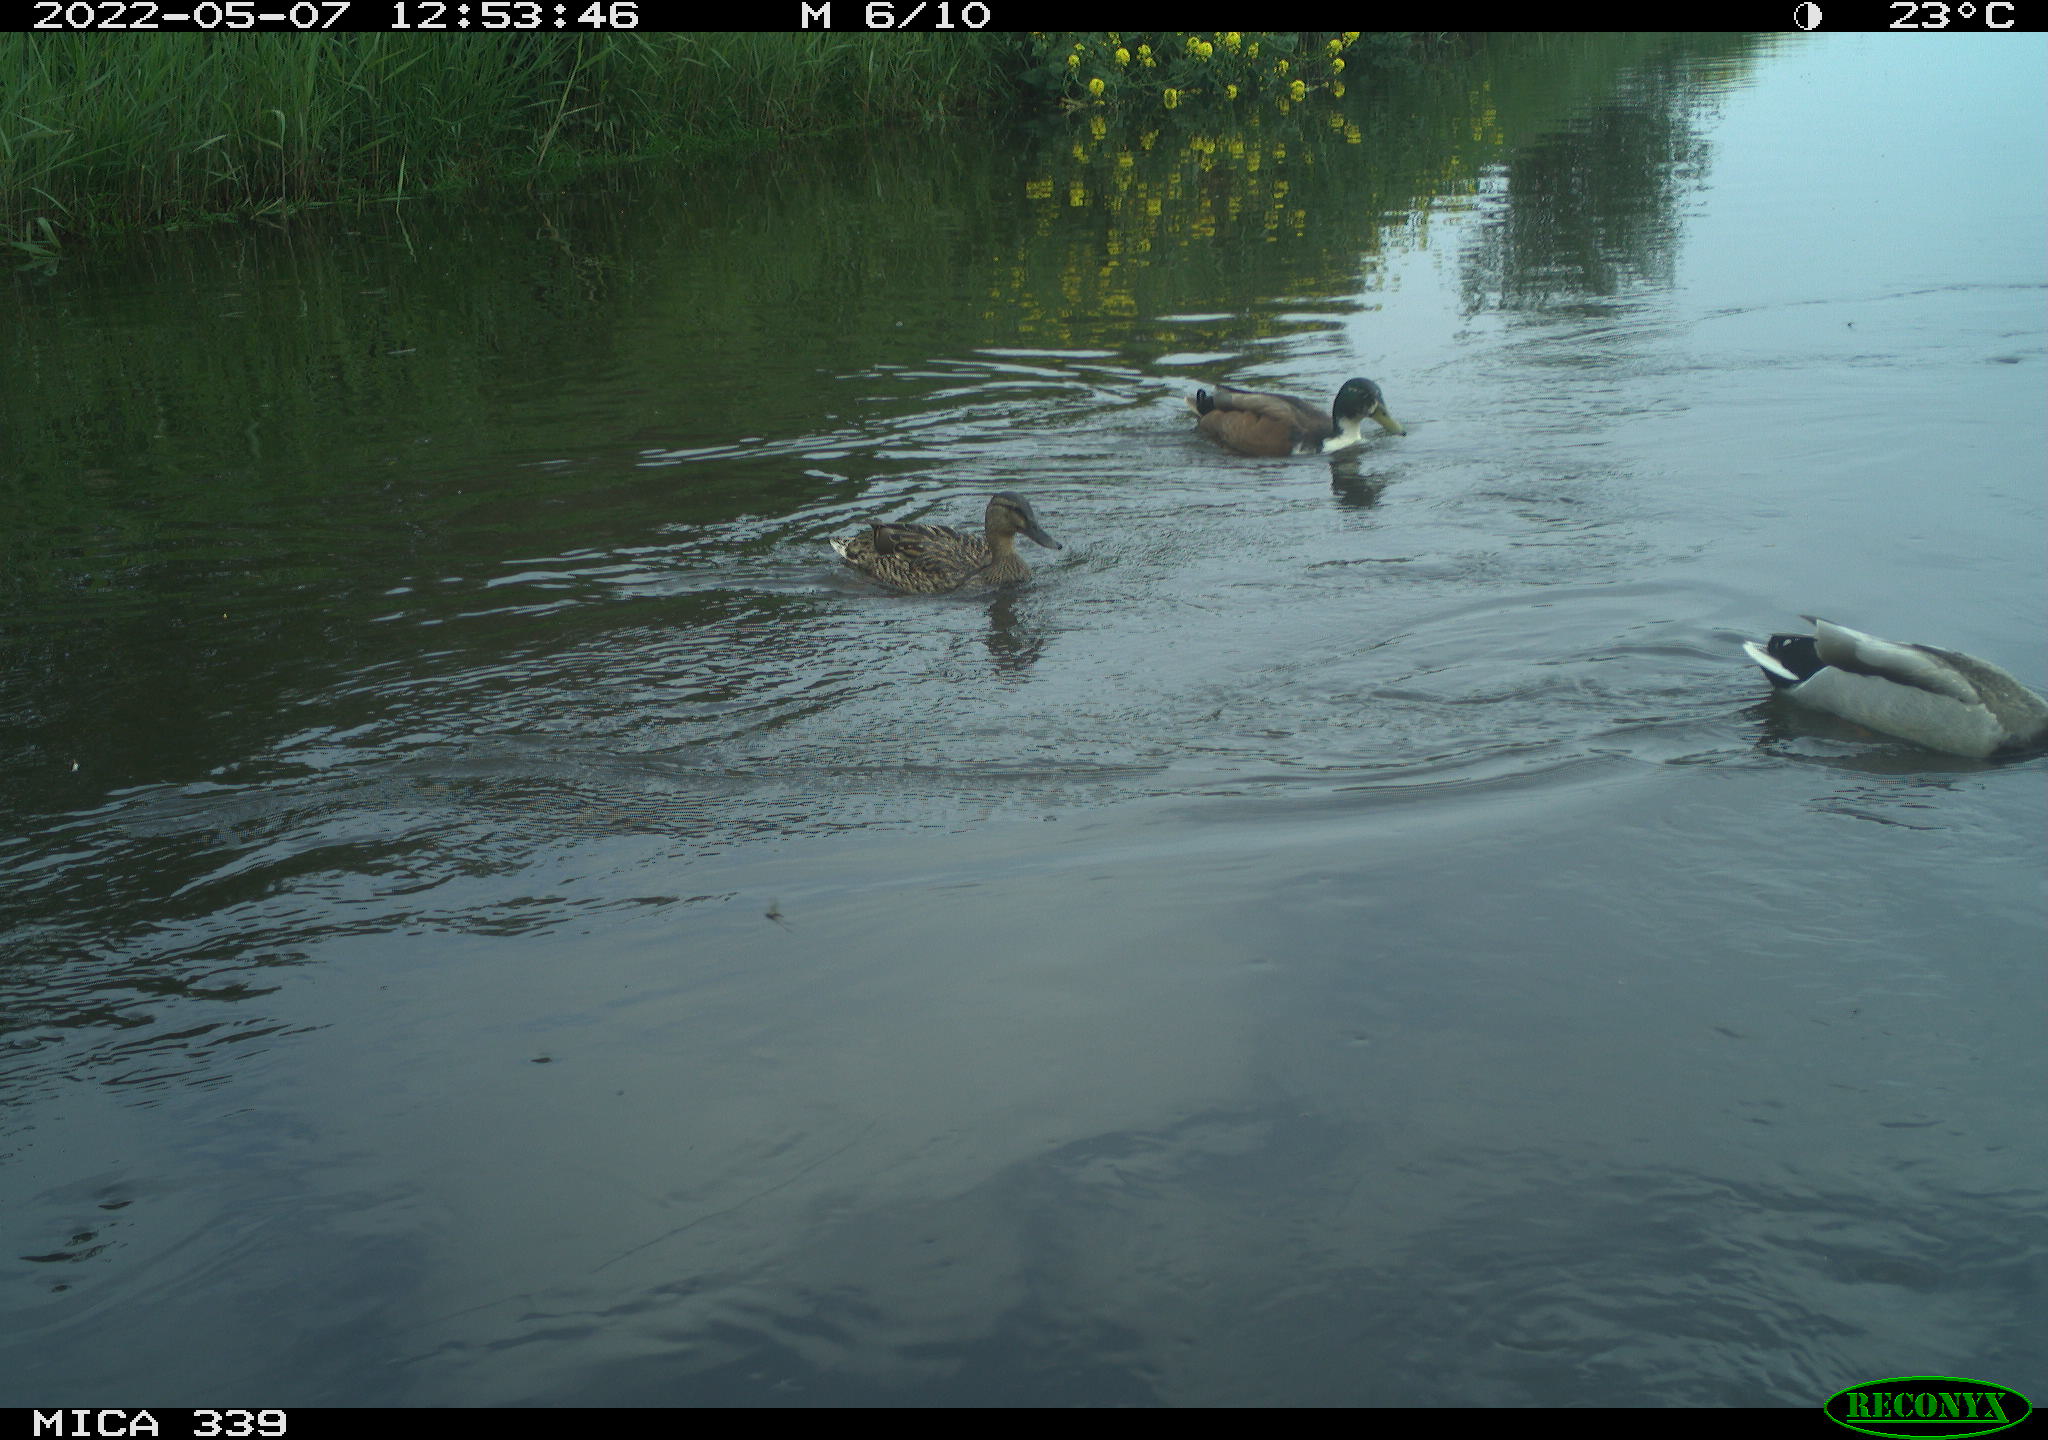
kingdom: Animalia
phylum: Chordata
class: Aves
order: Anseriformes
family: Anatidae
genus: Anas
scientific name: Anas platyrhynchos
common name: Mallard
